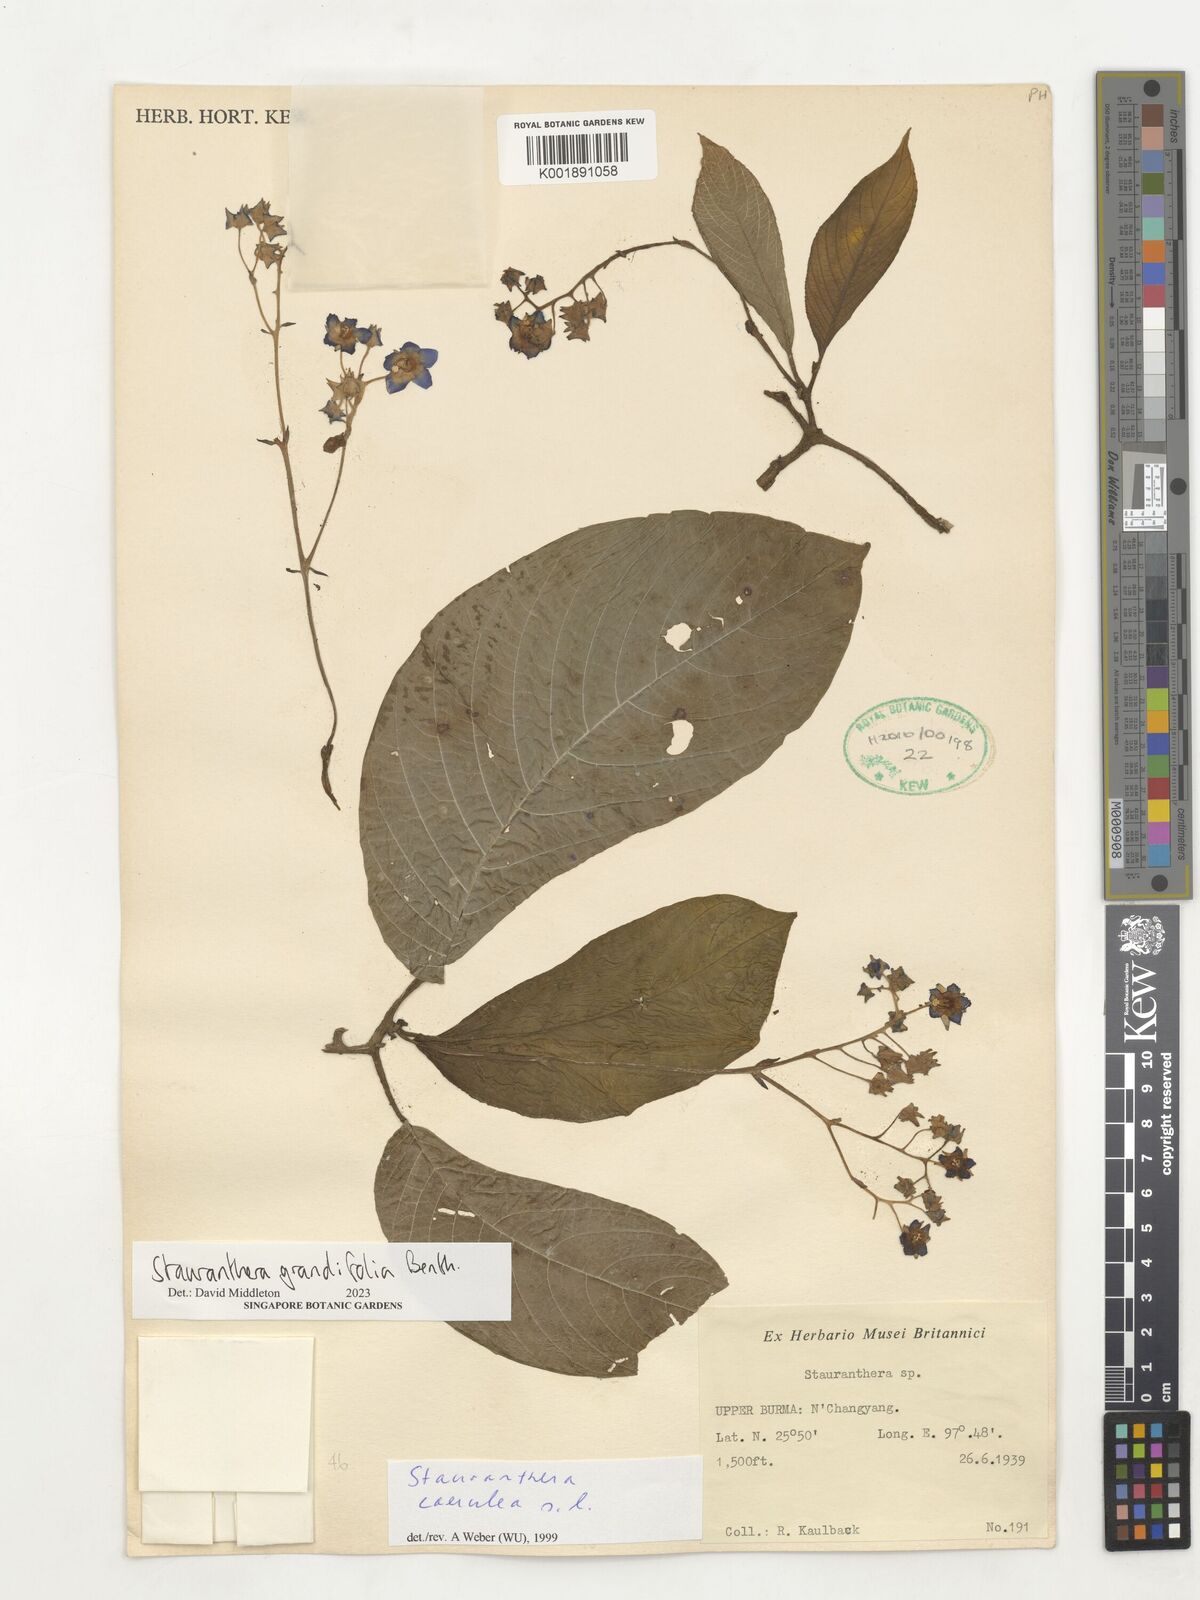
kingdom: Plantae
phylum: Tracheophyta
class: Magnoliopsida
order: Lamiales
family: Gesneriaceae
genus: Stauranthera
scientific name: Stauranthera grandifolia
